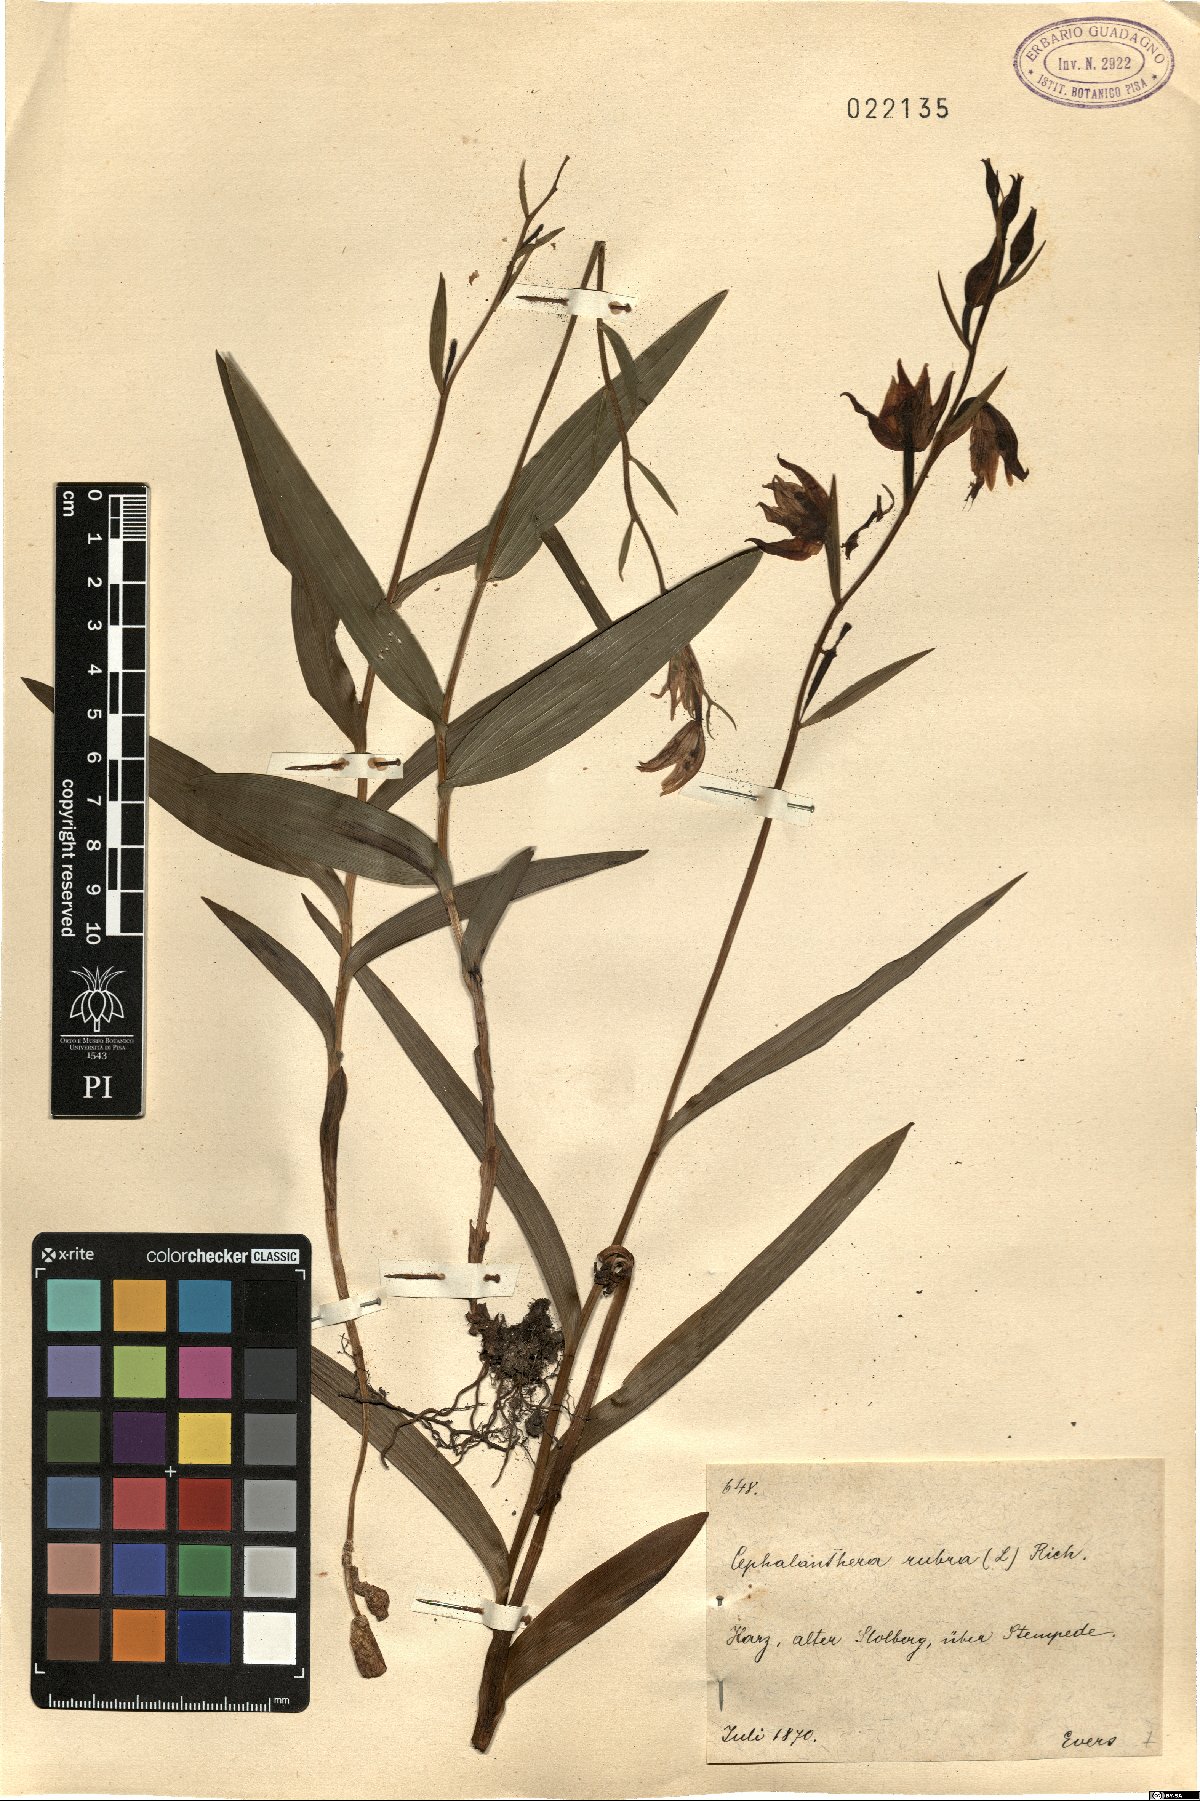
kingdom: Plantae
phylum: Tracheophyta
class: Liliopsida
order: Asparagales
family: Orchidaceae
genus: Cephalanthera
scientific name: Cephalanthera rubra
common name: Red helleborine
